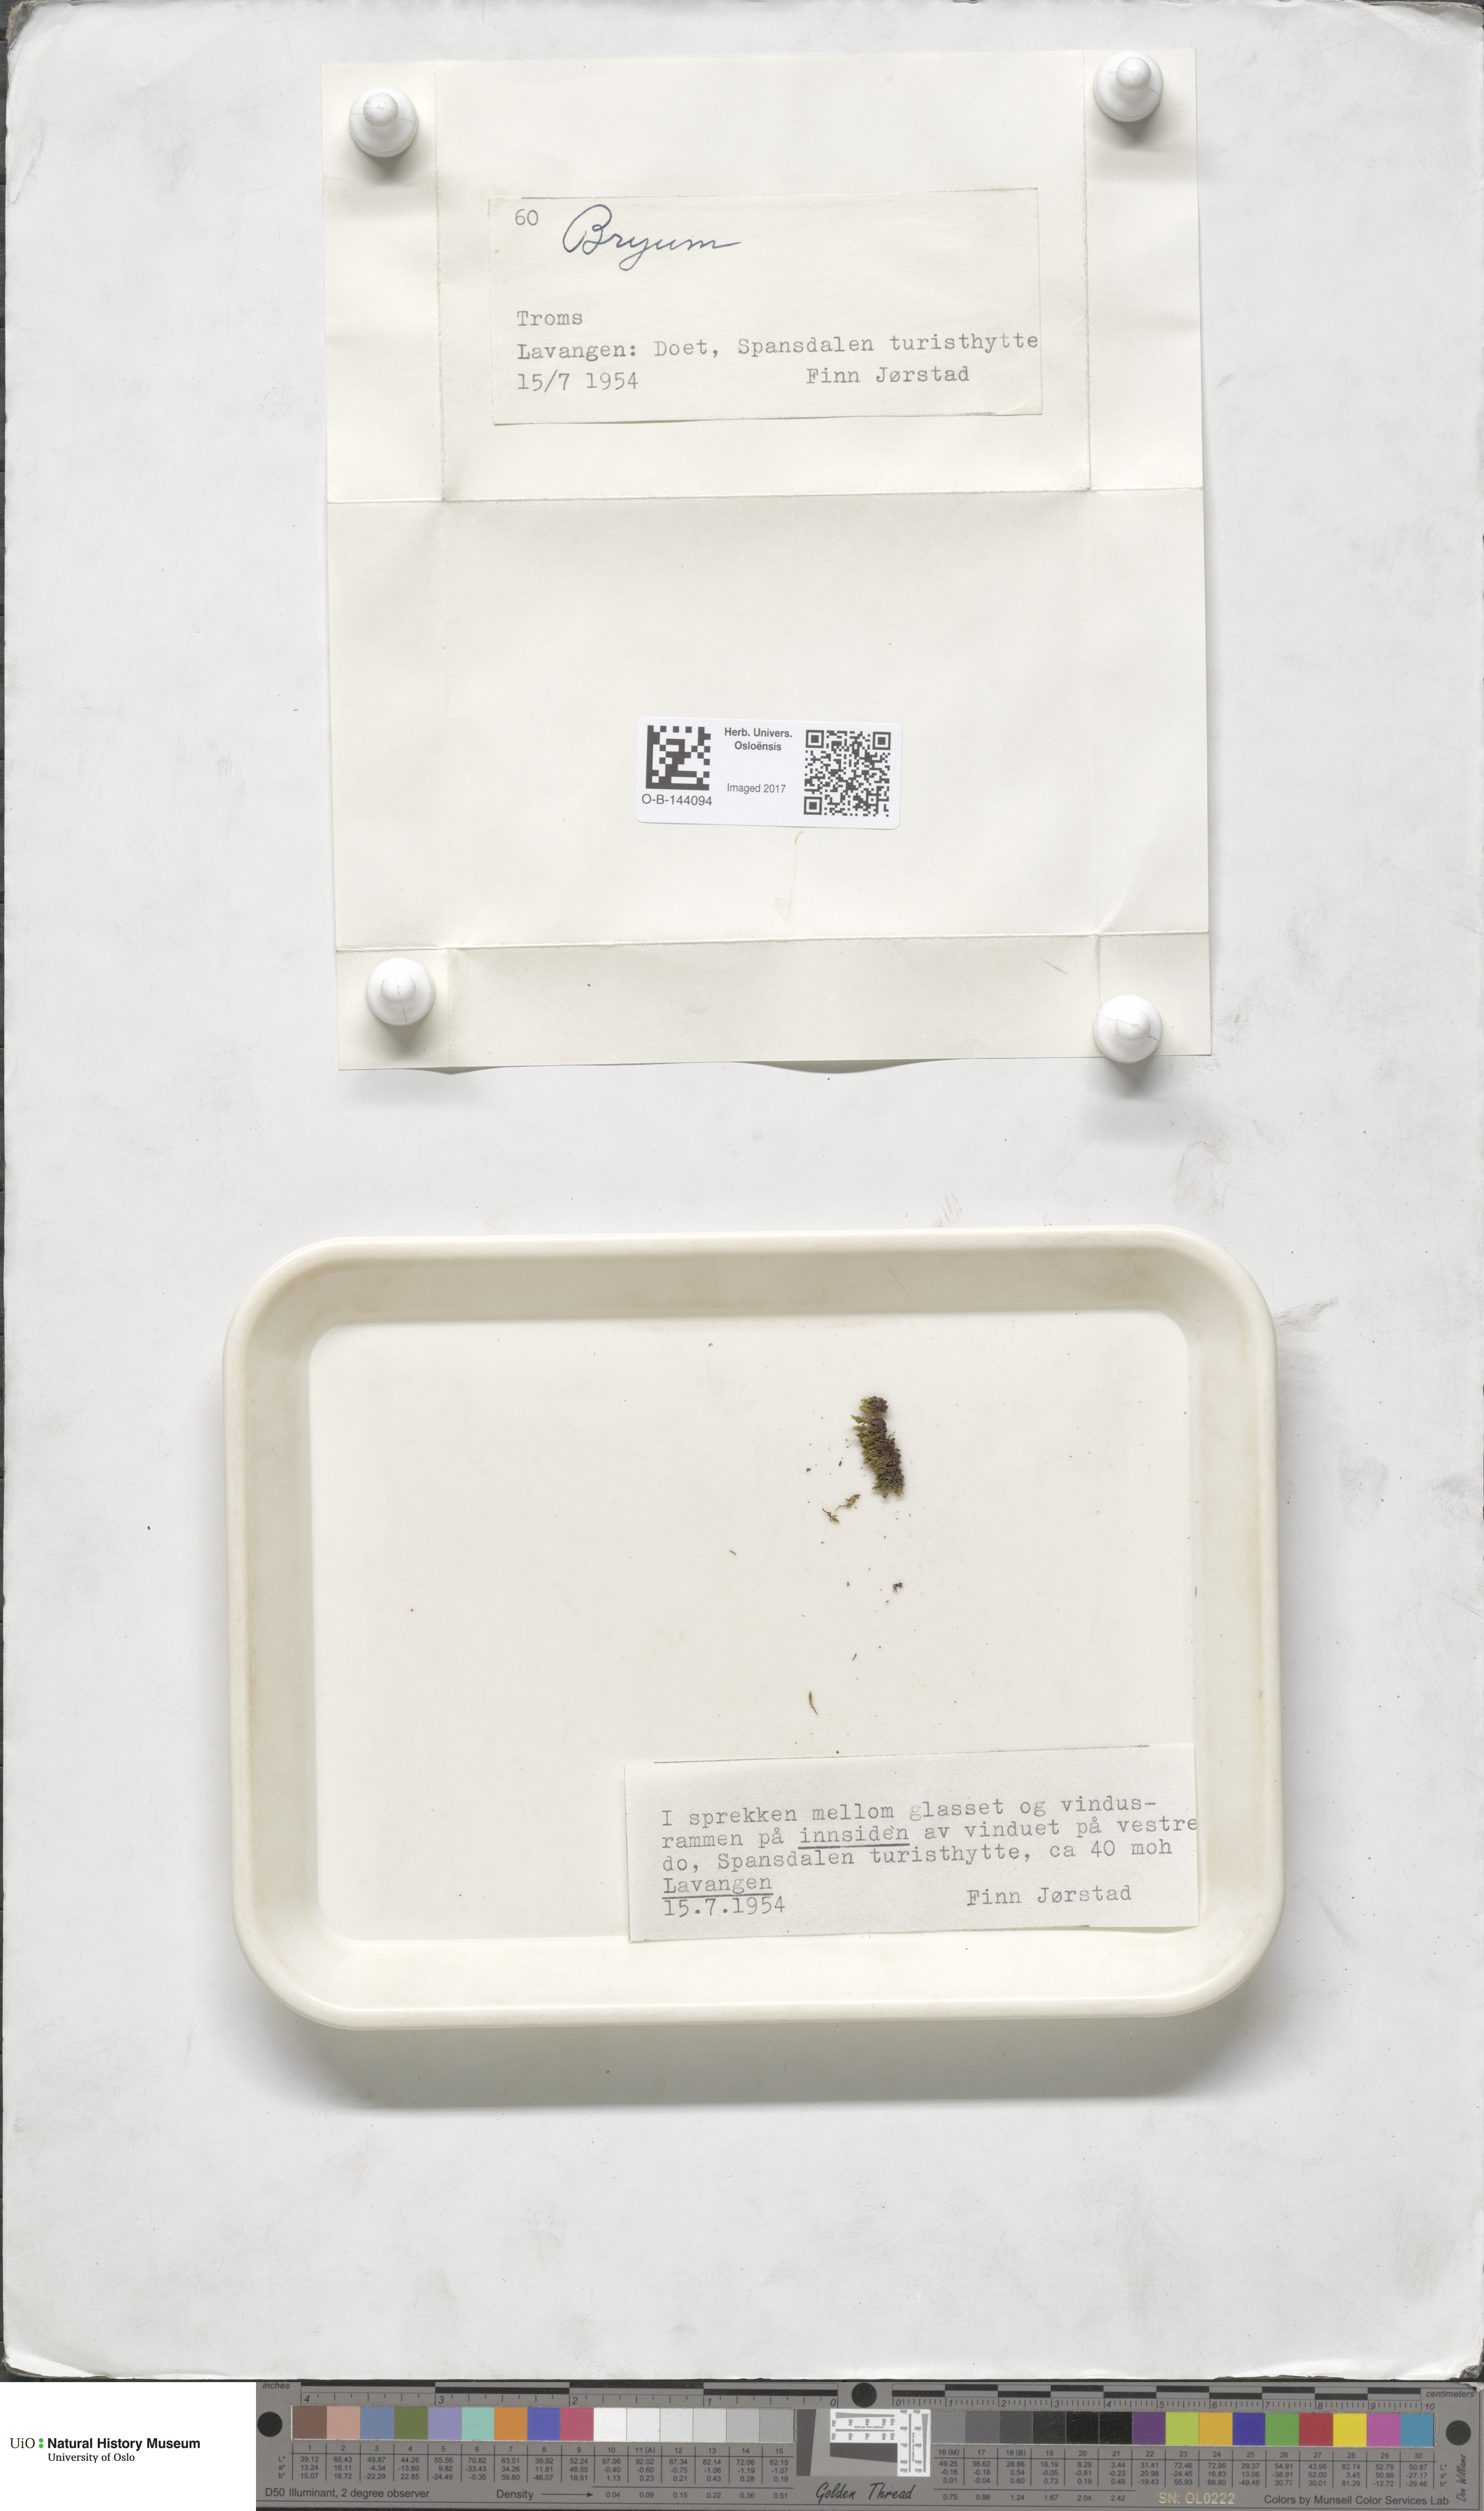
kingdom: Plantae
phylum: Bryophyta
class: Bryopsida
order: Bryales
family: Bryaceae
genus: Bryum
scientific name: Bryum
